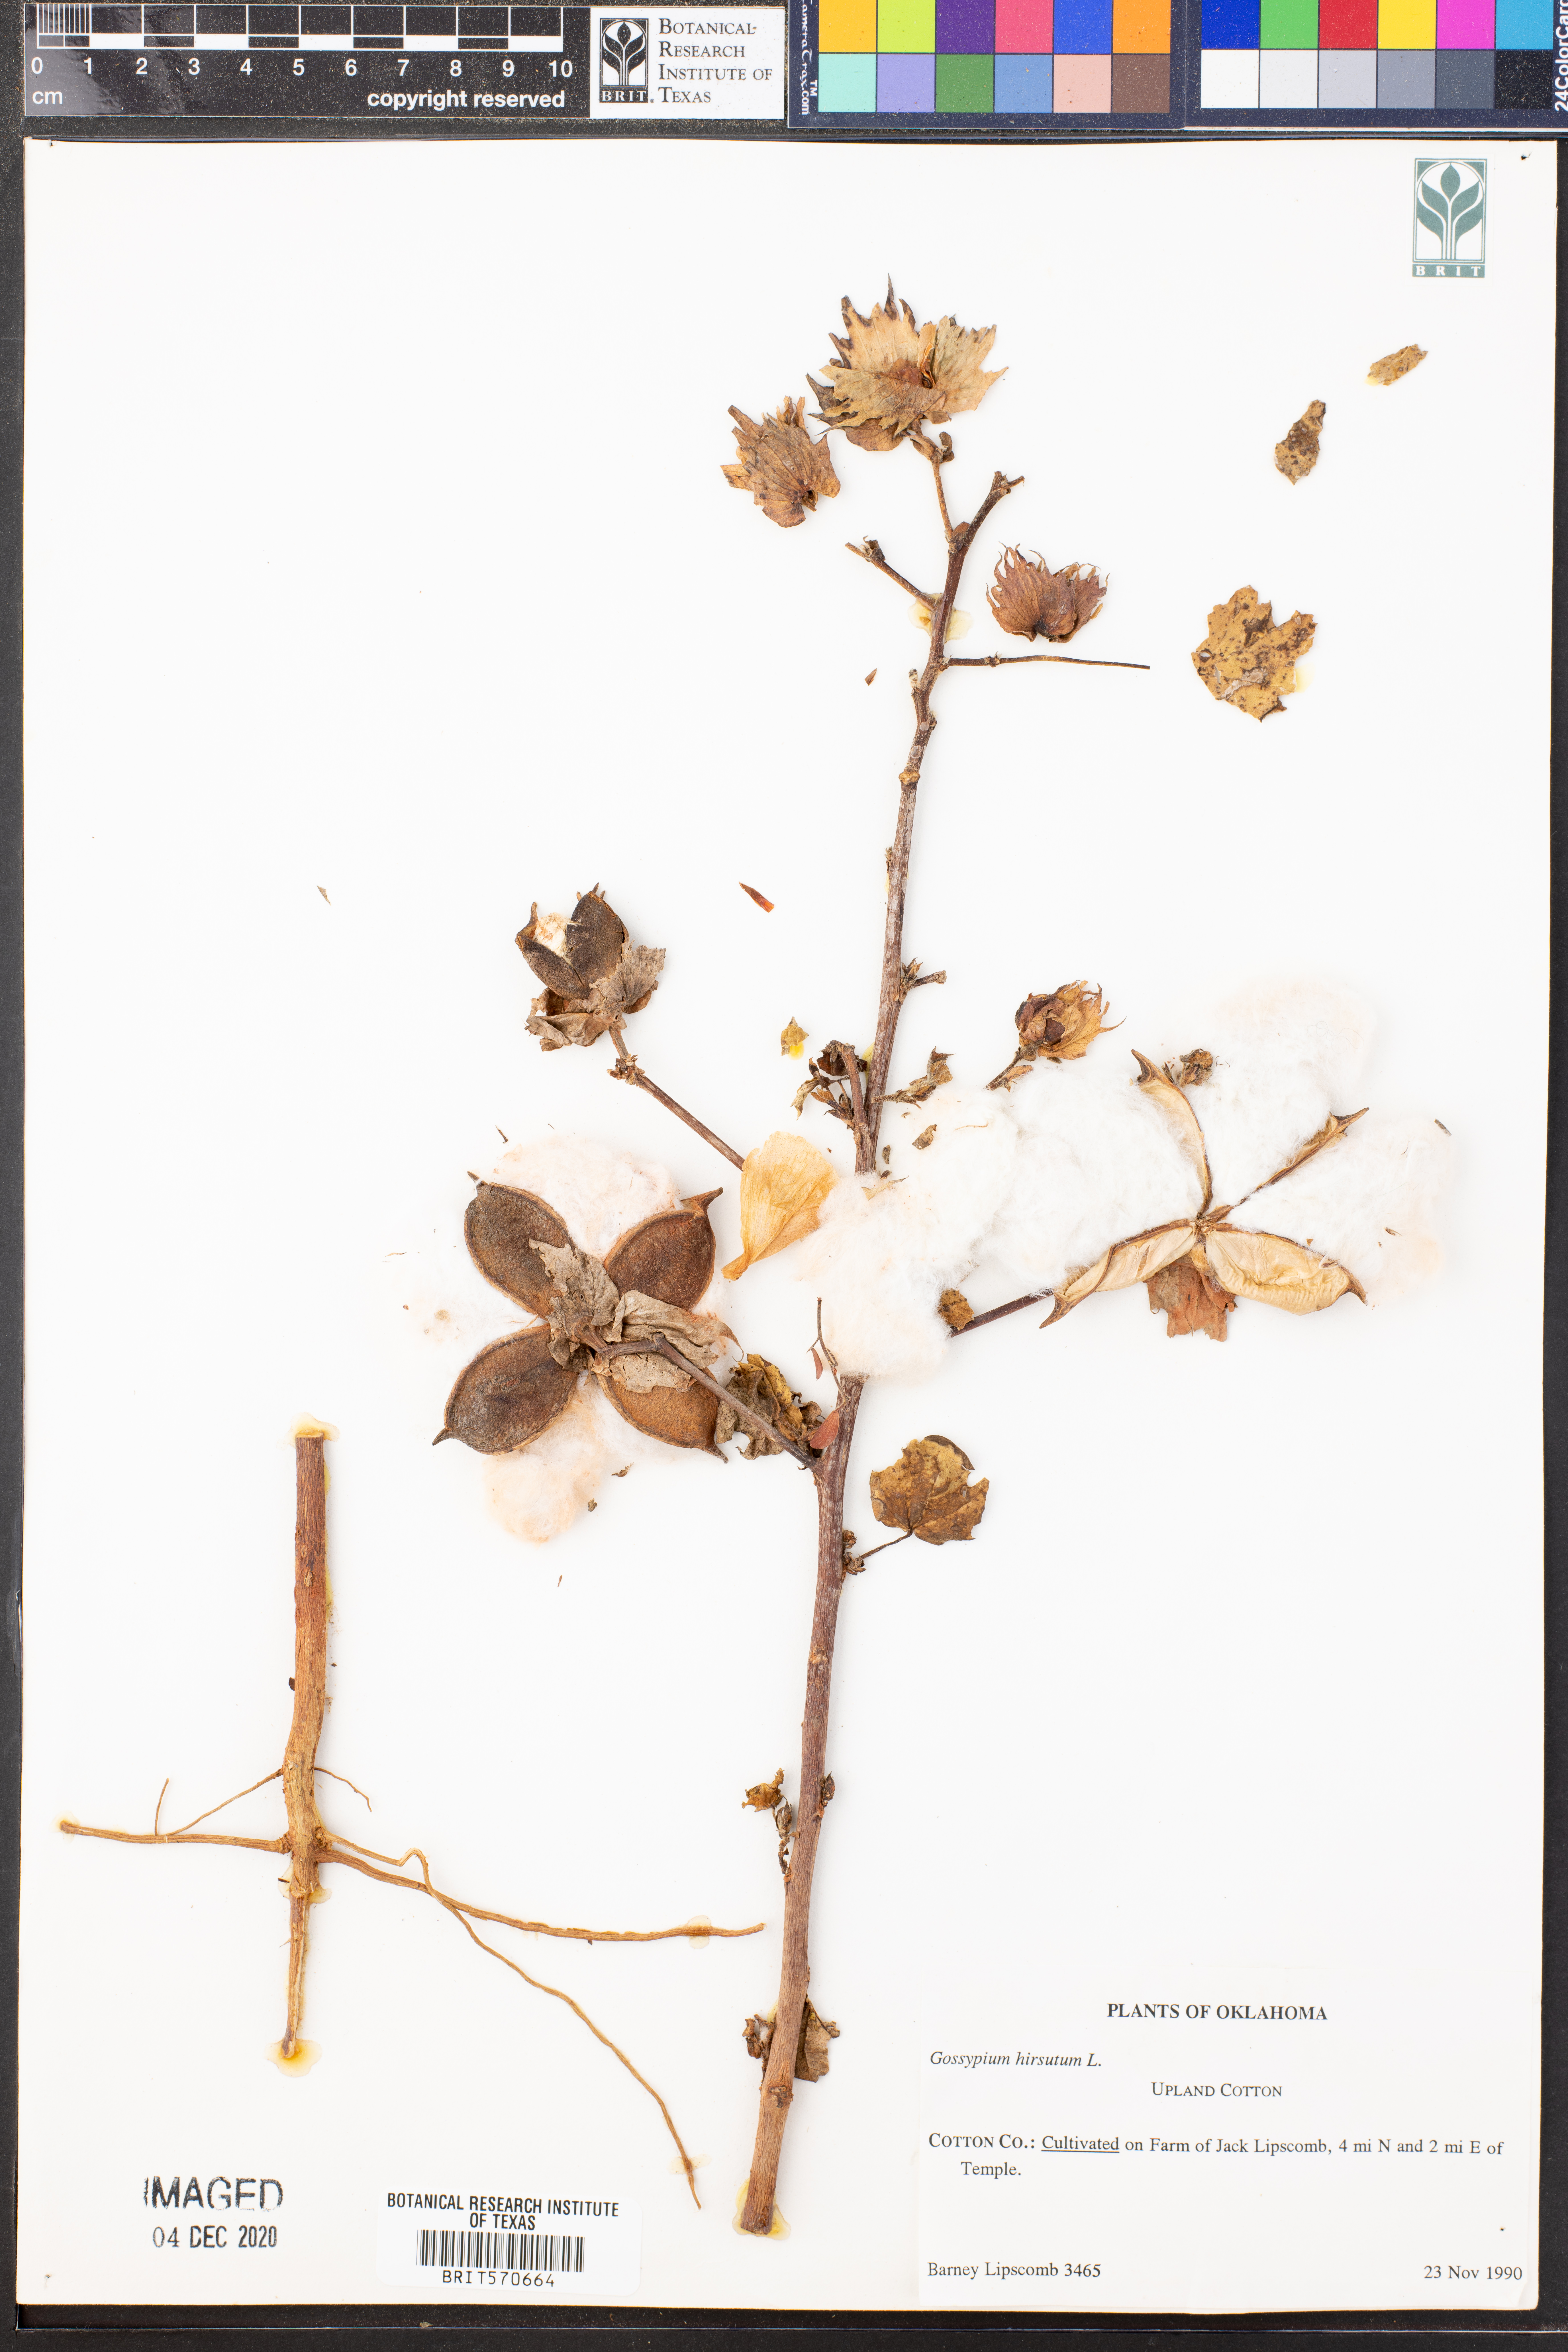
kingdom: Plantae
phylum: Tracheophyta
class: Magnoliopsida
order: Malvales
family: Malvaceae
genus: Gossypium
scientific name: Gossypium hirsutum
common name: Cotton
